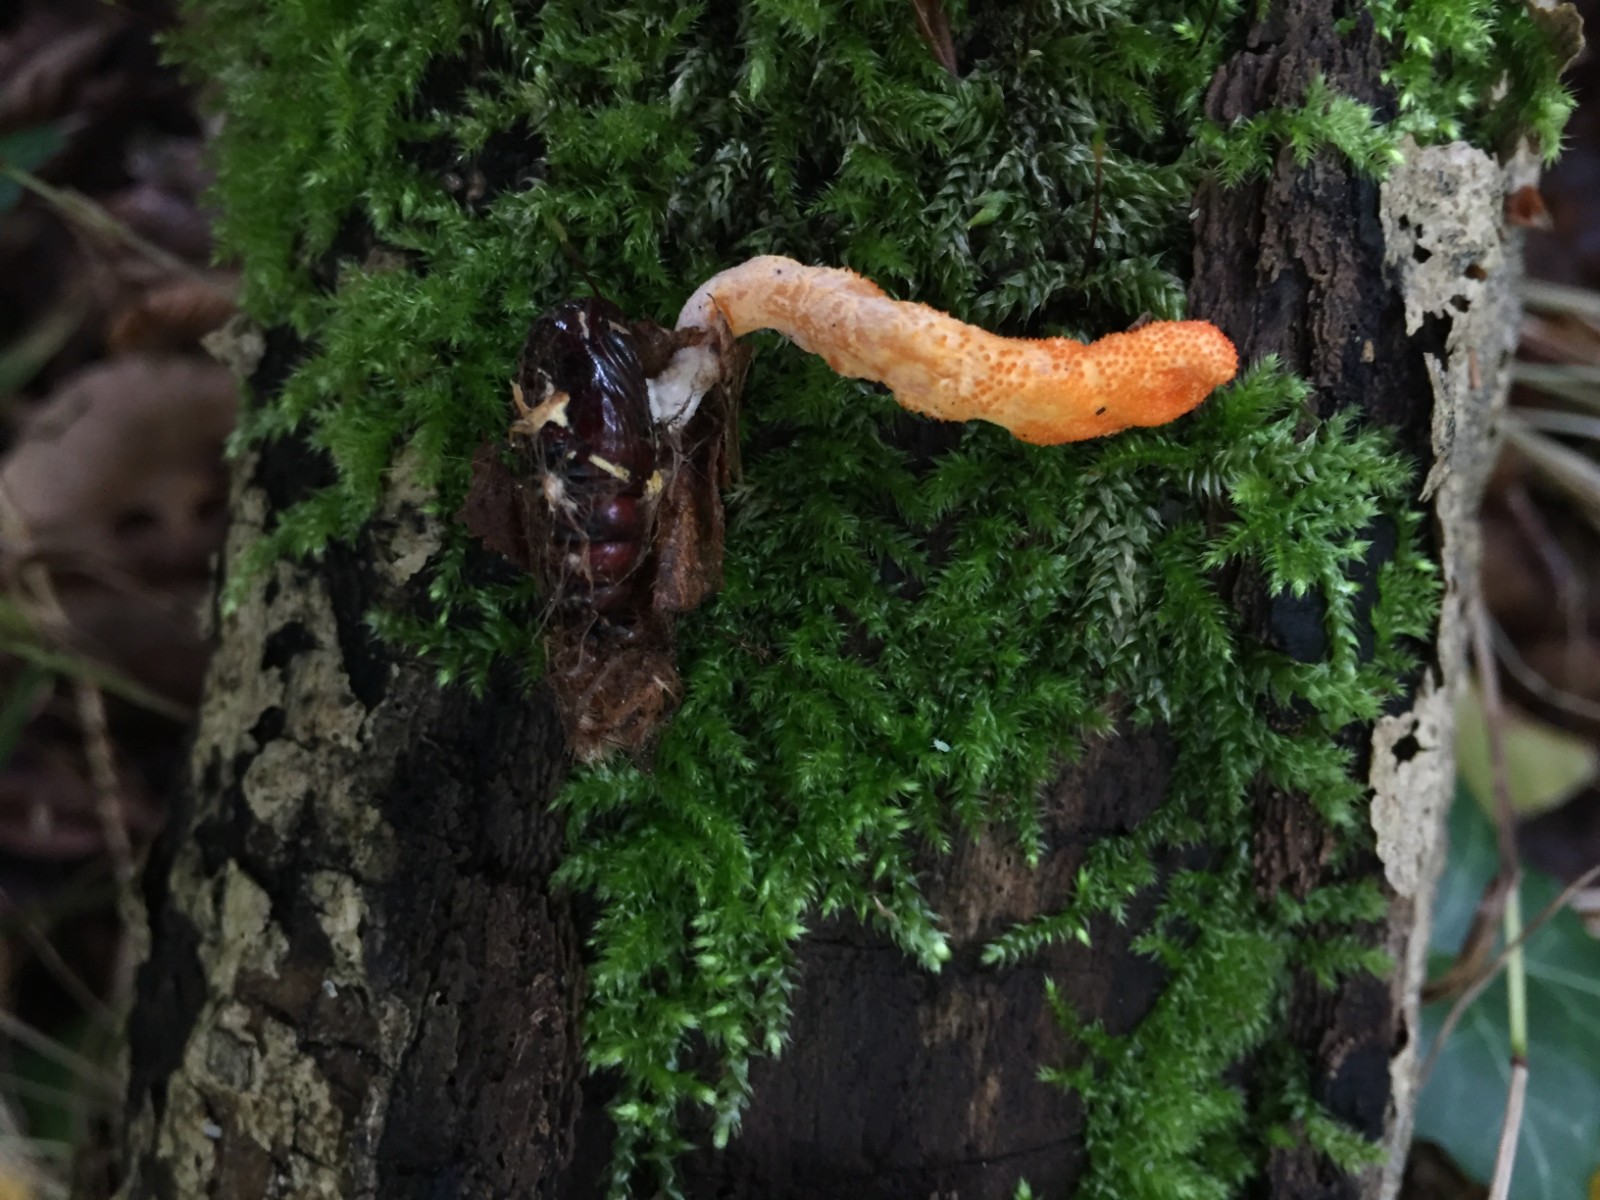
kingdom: Fungi
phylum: Ascomycota
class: Sordariomycetes
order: Hypocreales
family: Cordycipitaceae
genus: Cordyceps
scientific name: Cordyceps militaris
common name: puppe-snyltekølle
